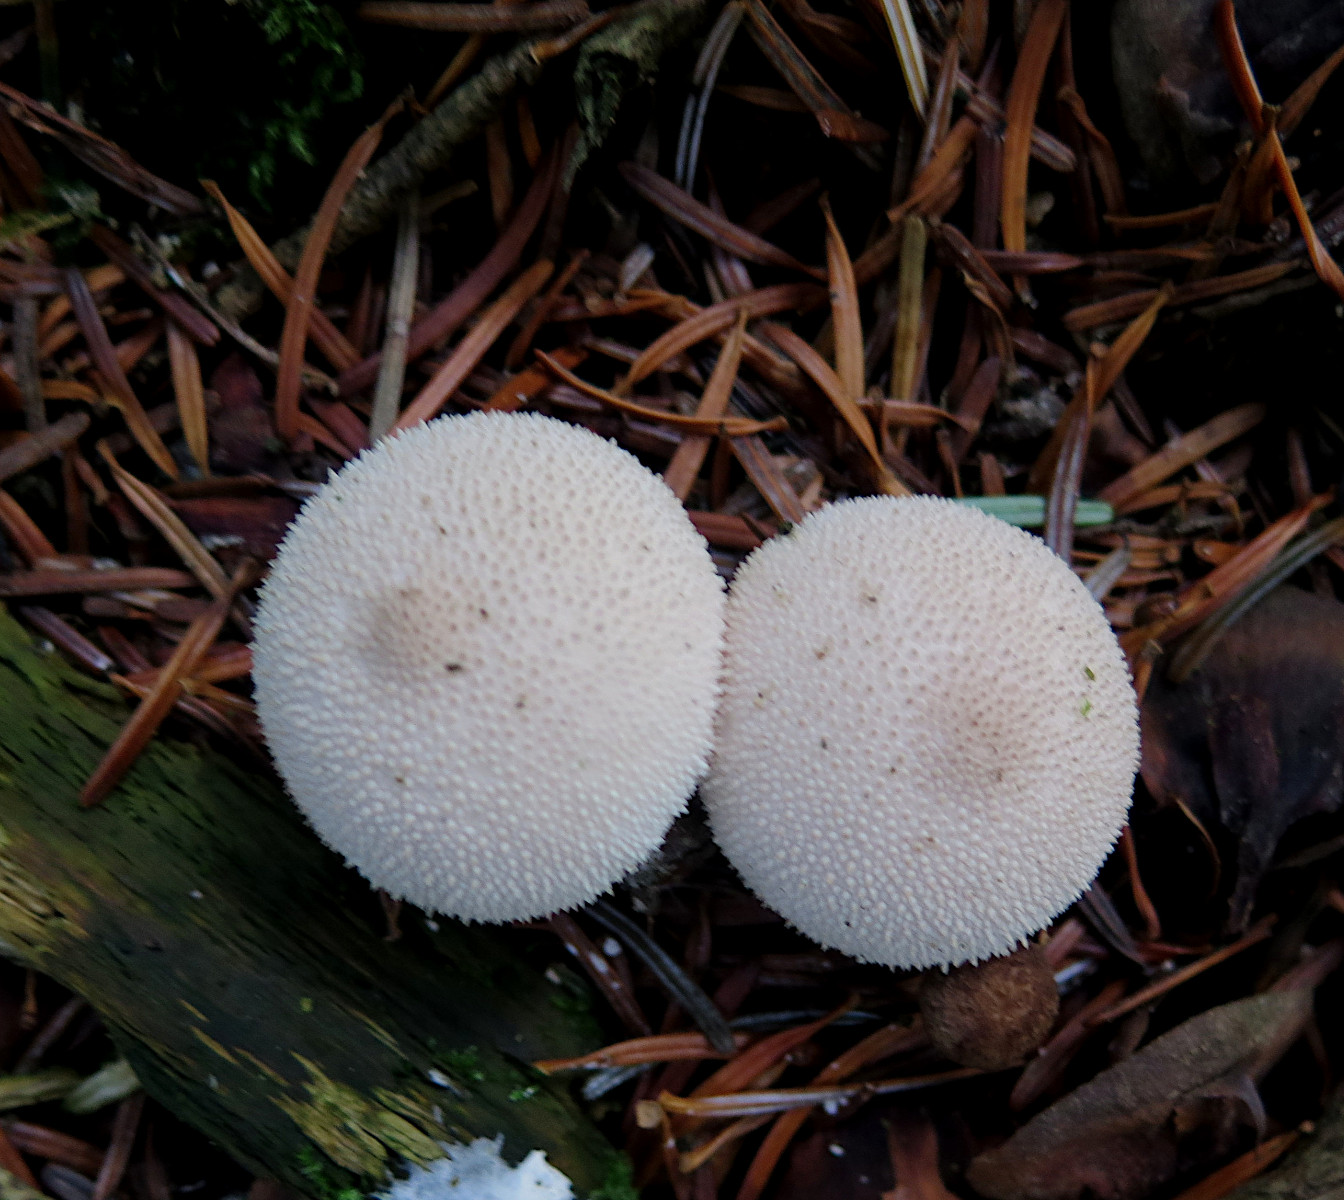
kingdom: Fungi
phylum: Basidiomycota
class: Agaricomycetes
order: Agaricales
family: Lycoperdaceae
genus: Lycoperdon
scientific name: Lycoperdon perlatum
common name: krystal-støvbold
